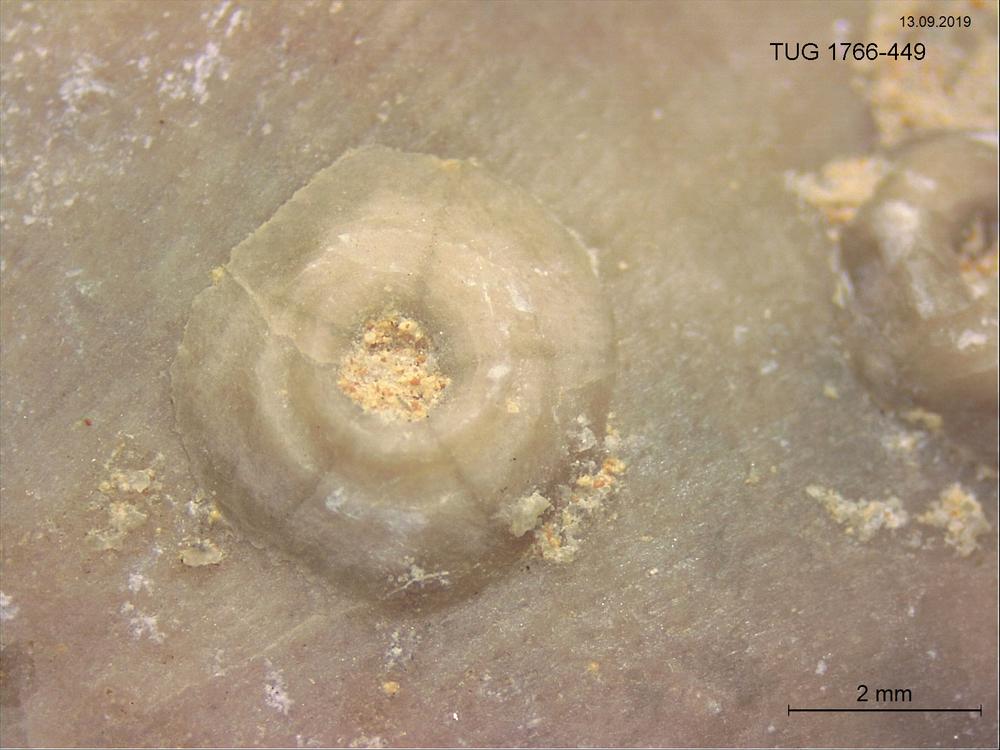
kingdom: Animalia
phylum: Echinodermata
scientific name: Echinodermata
